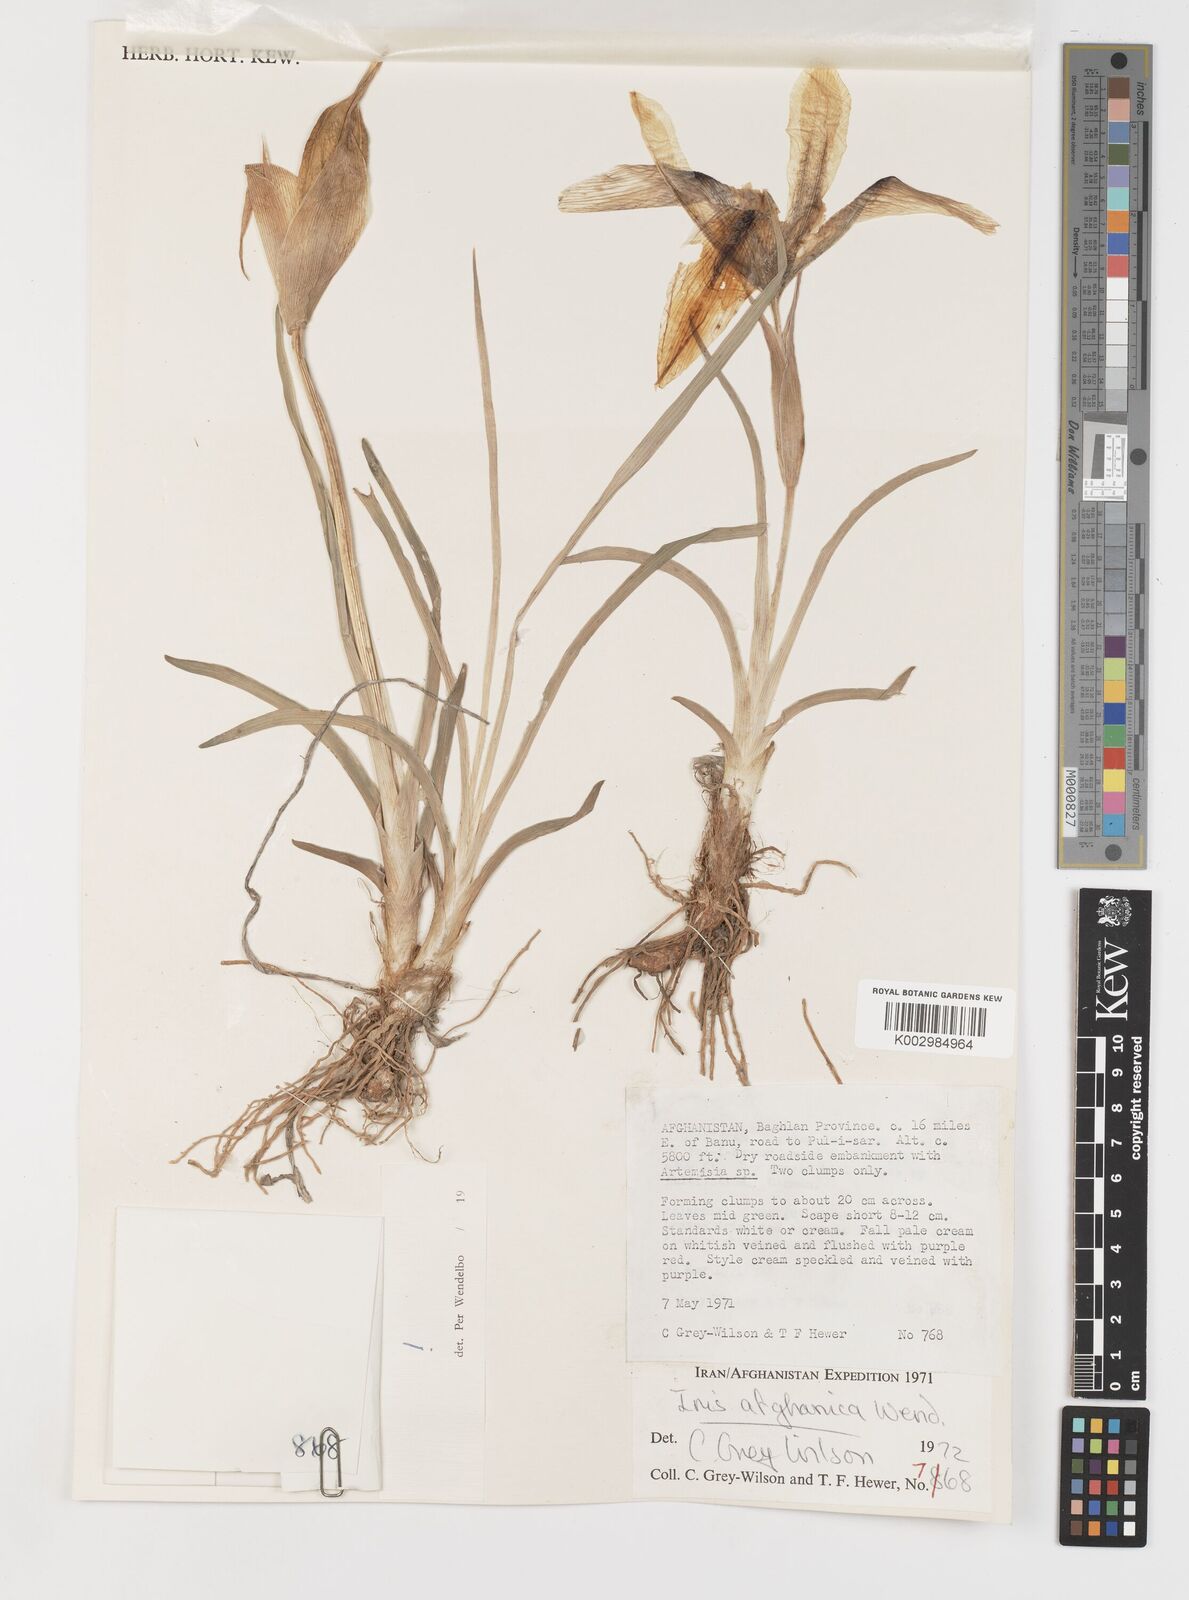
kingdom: Plantae
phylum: Tracheophyta
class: Liliopsida
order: Asparagales
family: Iridaceae
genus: Iris
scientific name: Iris afghanica
